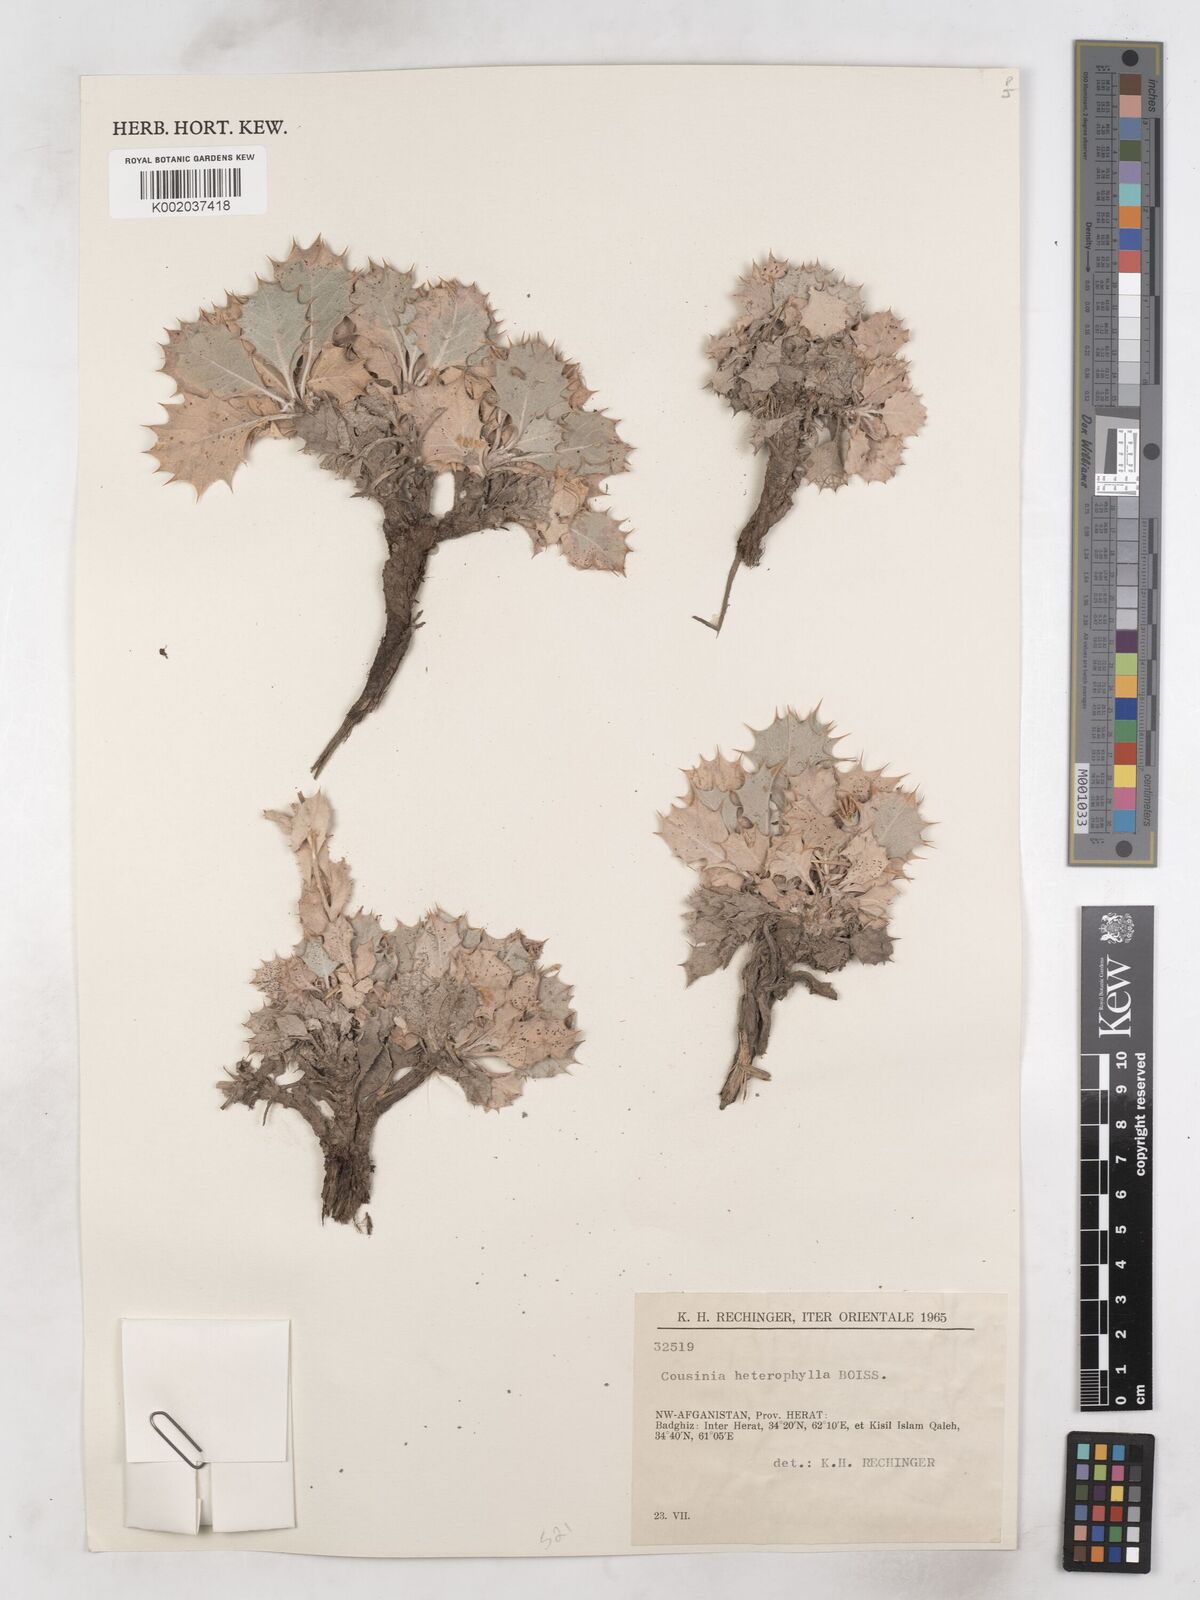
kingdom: Plantae
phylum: Tracheophyta
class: Magnoliopsida
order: Asterales
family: Asteraceae
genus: Cousinia
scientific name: Cousinia heterophylla
